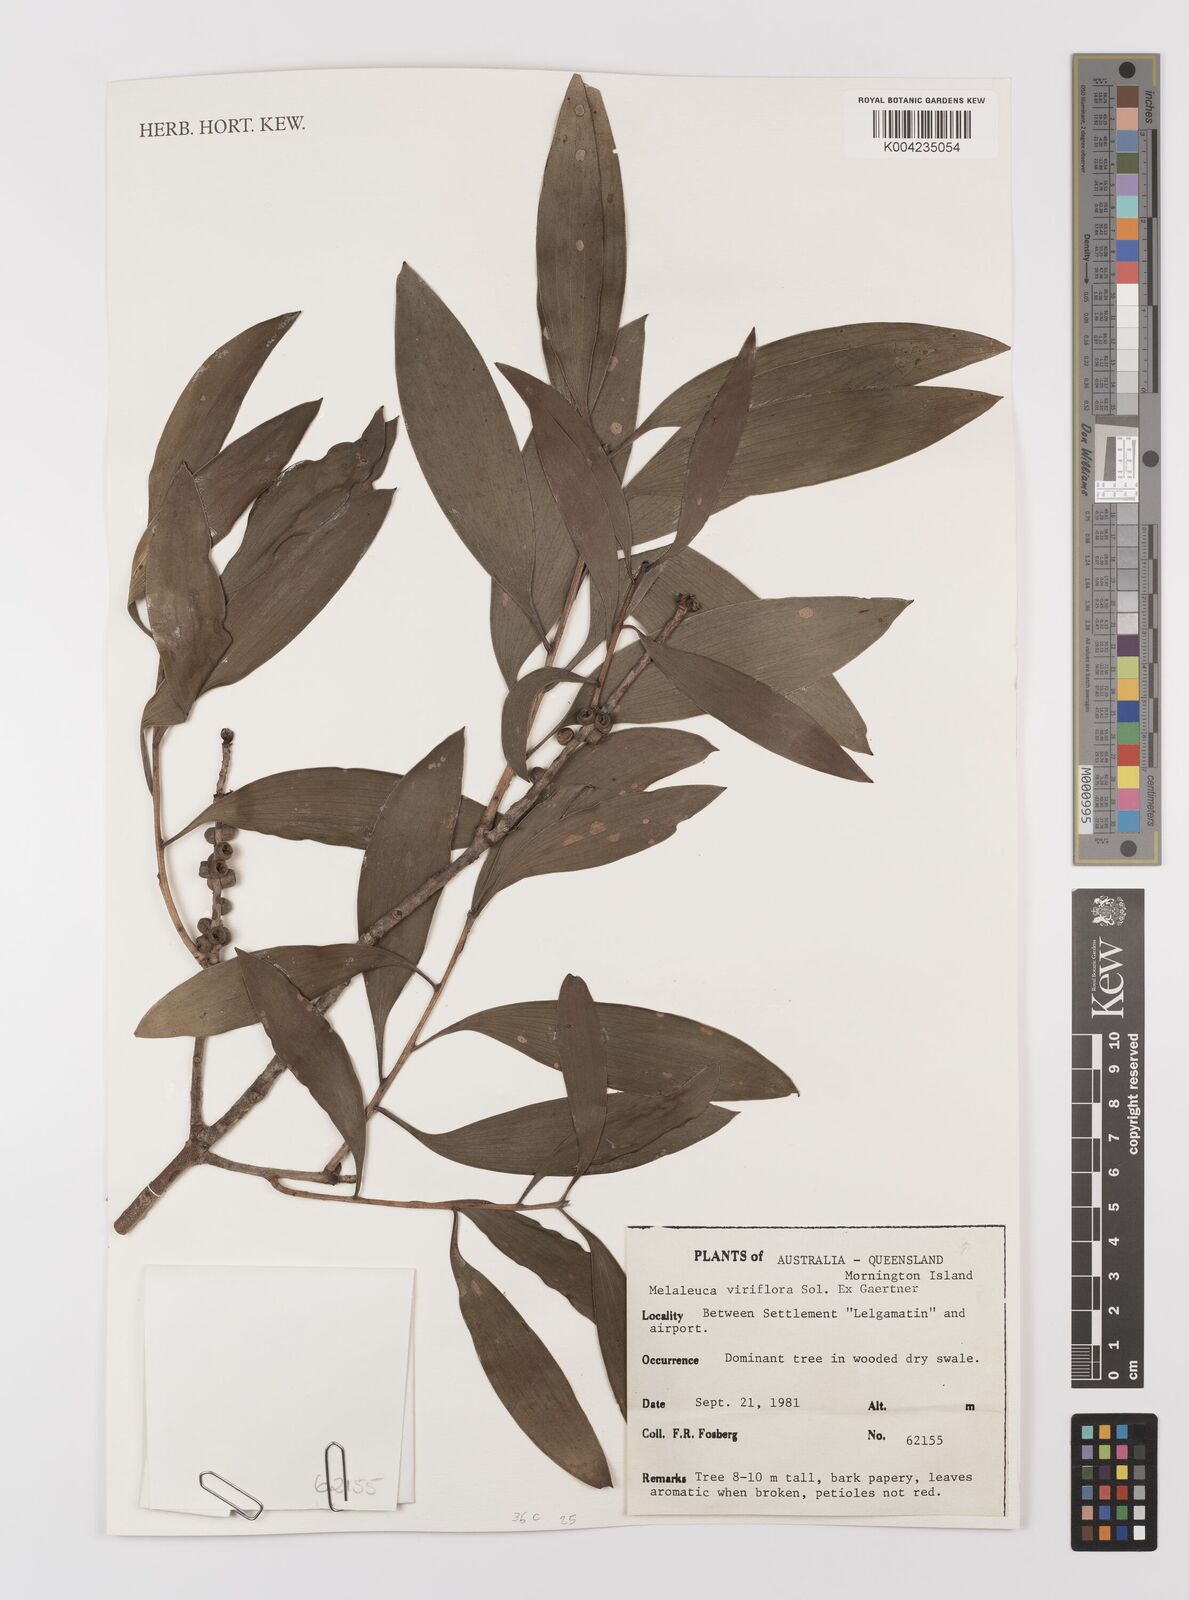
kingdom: Plantae
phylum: Tracheophyta
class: Magnoliopsida
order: Myrtales
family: Myrtaceae
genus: Melaleuca
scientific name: Melaleuca viridiflora
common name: Brown-leaved paperbark
